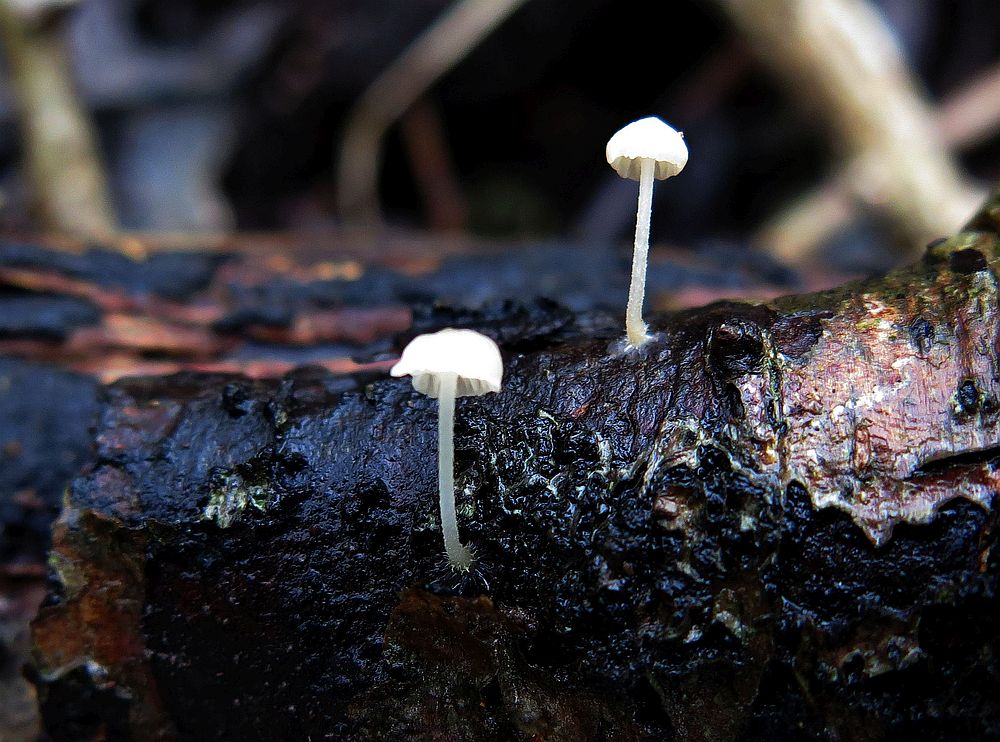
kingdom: Fungi
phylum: Basidiomycota
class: Agaricomycetes
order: Agaricales
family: Porotheleaceae
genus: Phloeomana
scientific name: Phloeomana speirea
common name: kvist-huesvamp
